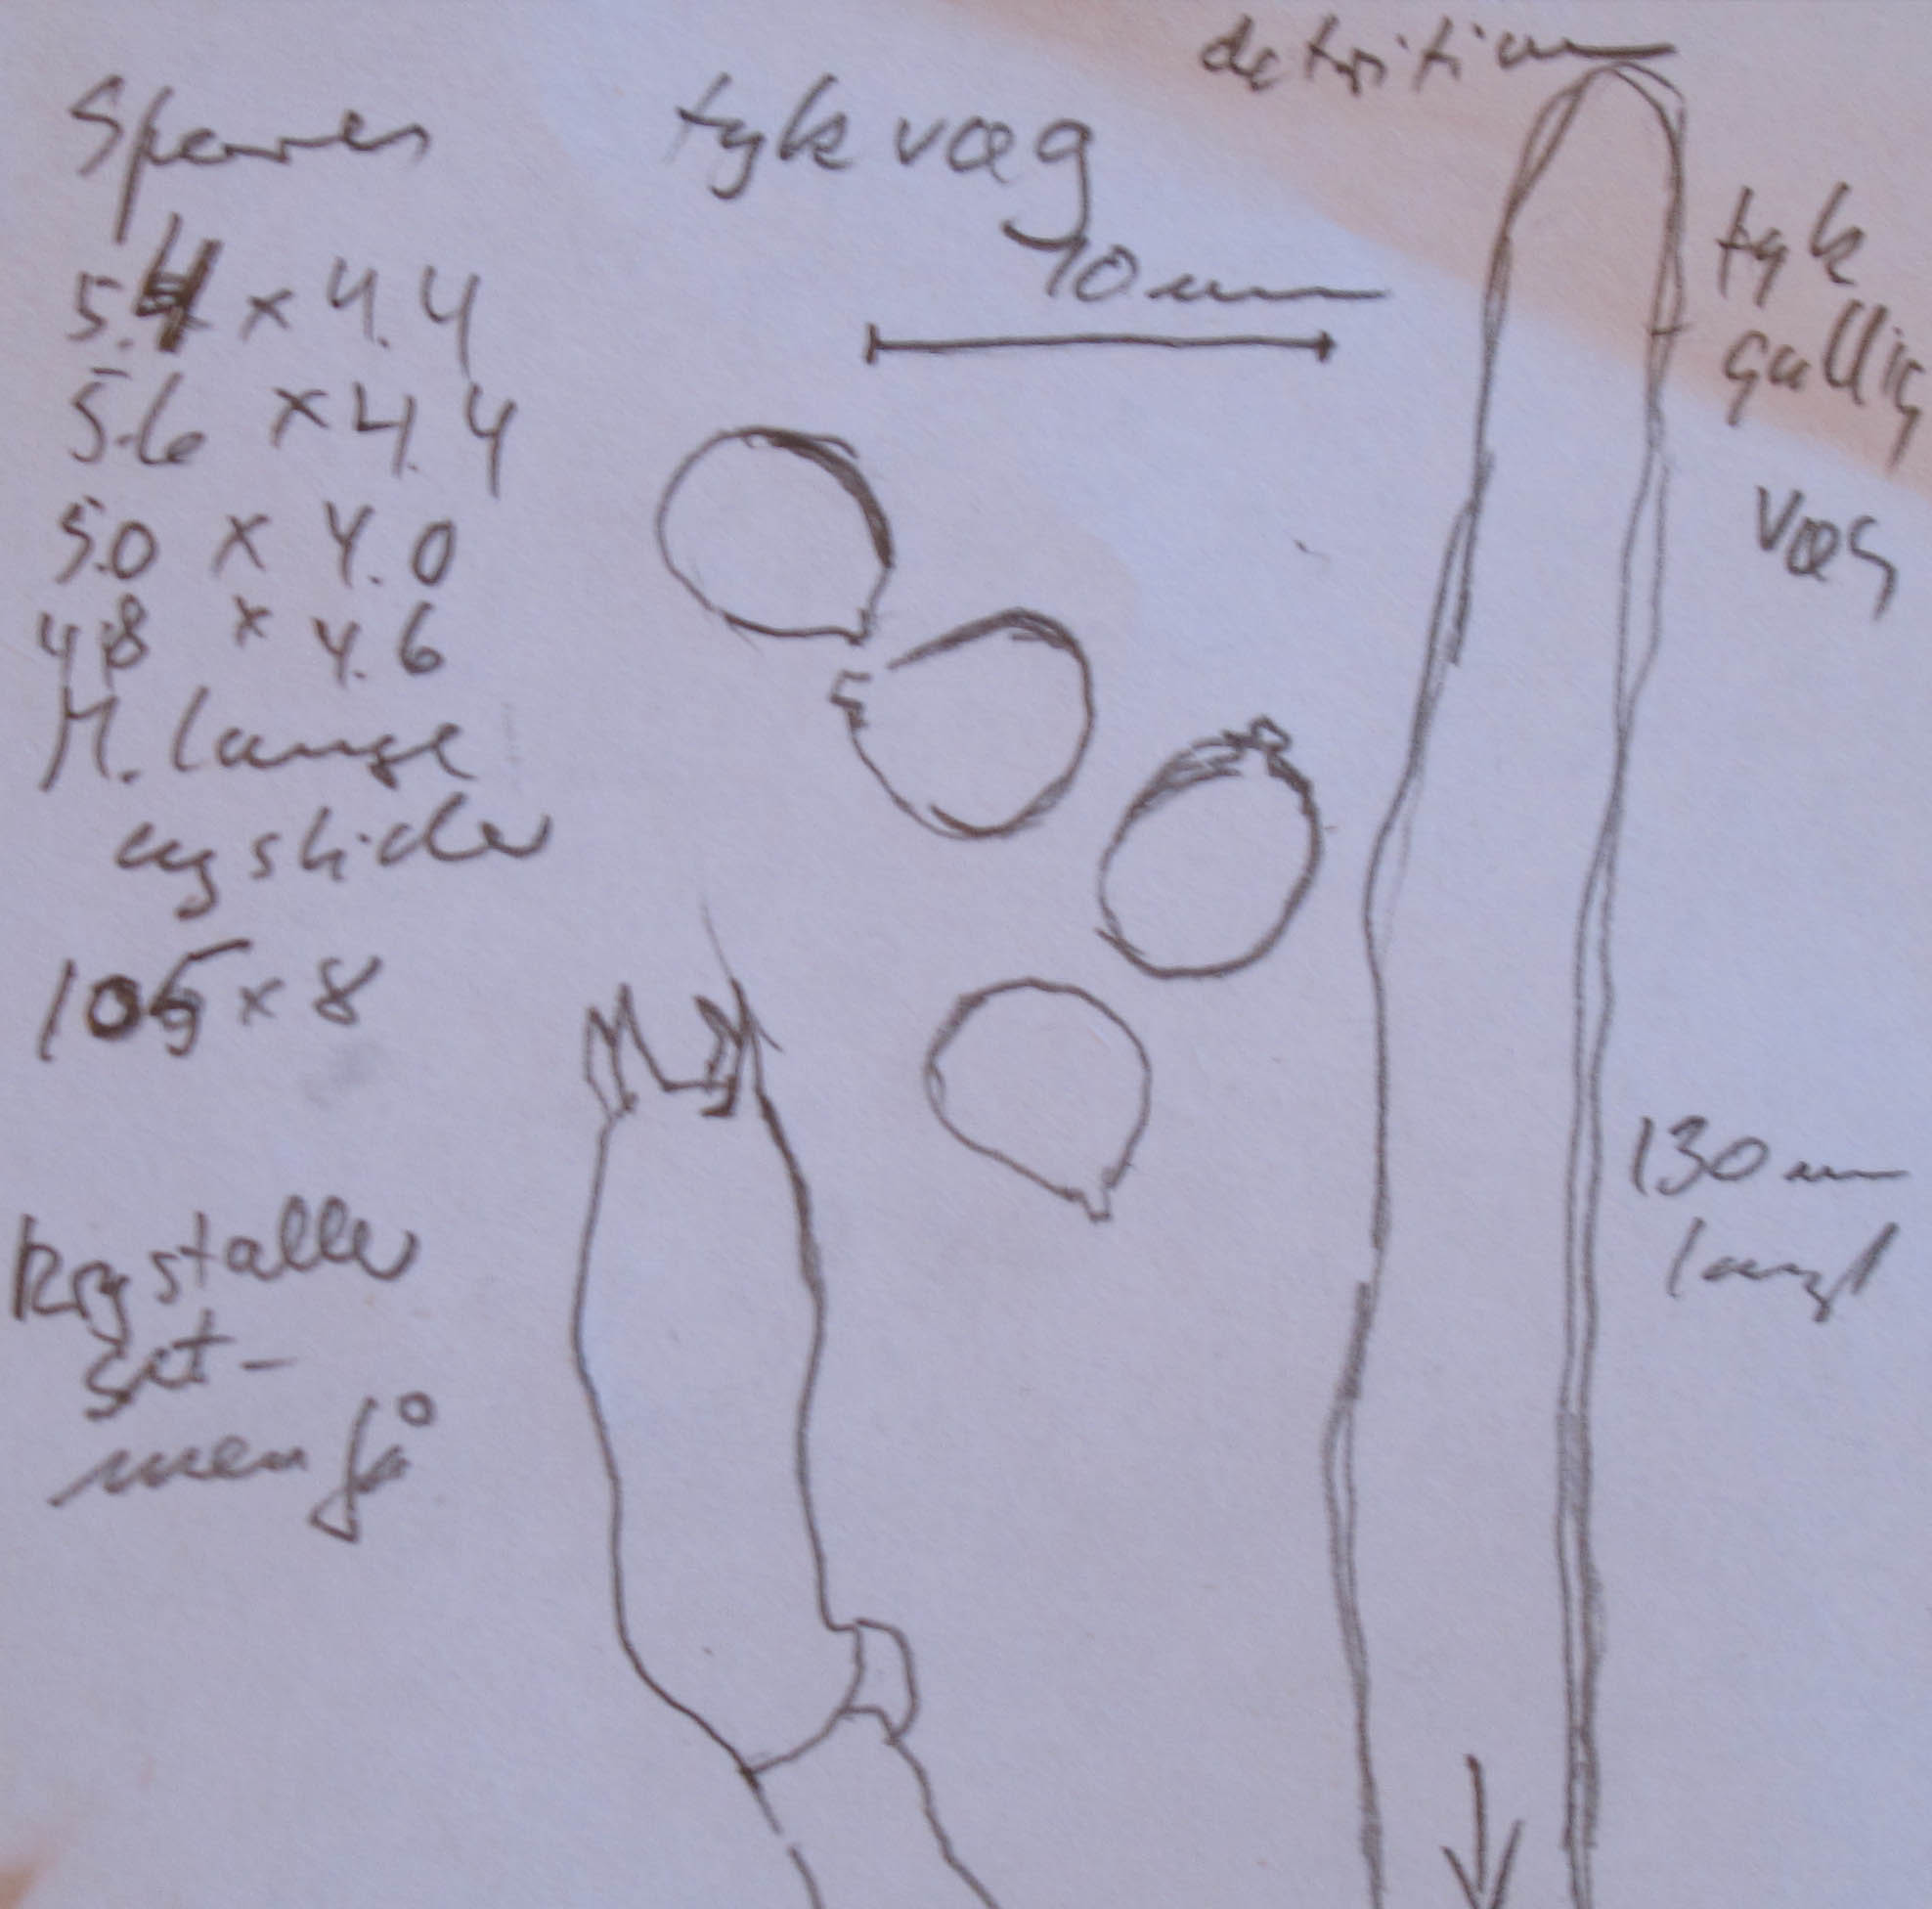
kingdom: Fungi
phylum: Basidiomycota
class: Agaricomycetes
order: Hymenochaetales
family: Hyphodontiaceae
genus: Hyphodontia
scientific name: Hyphodontia barba-jovis
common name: skægget tandsvamp
